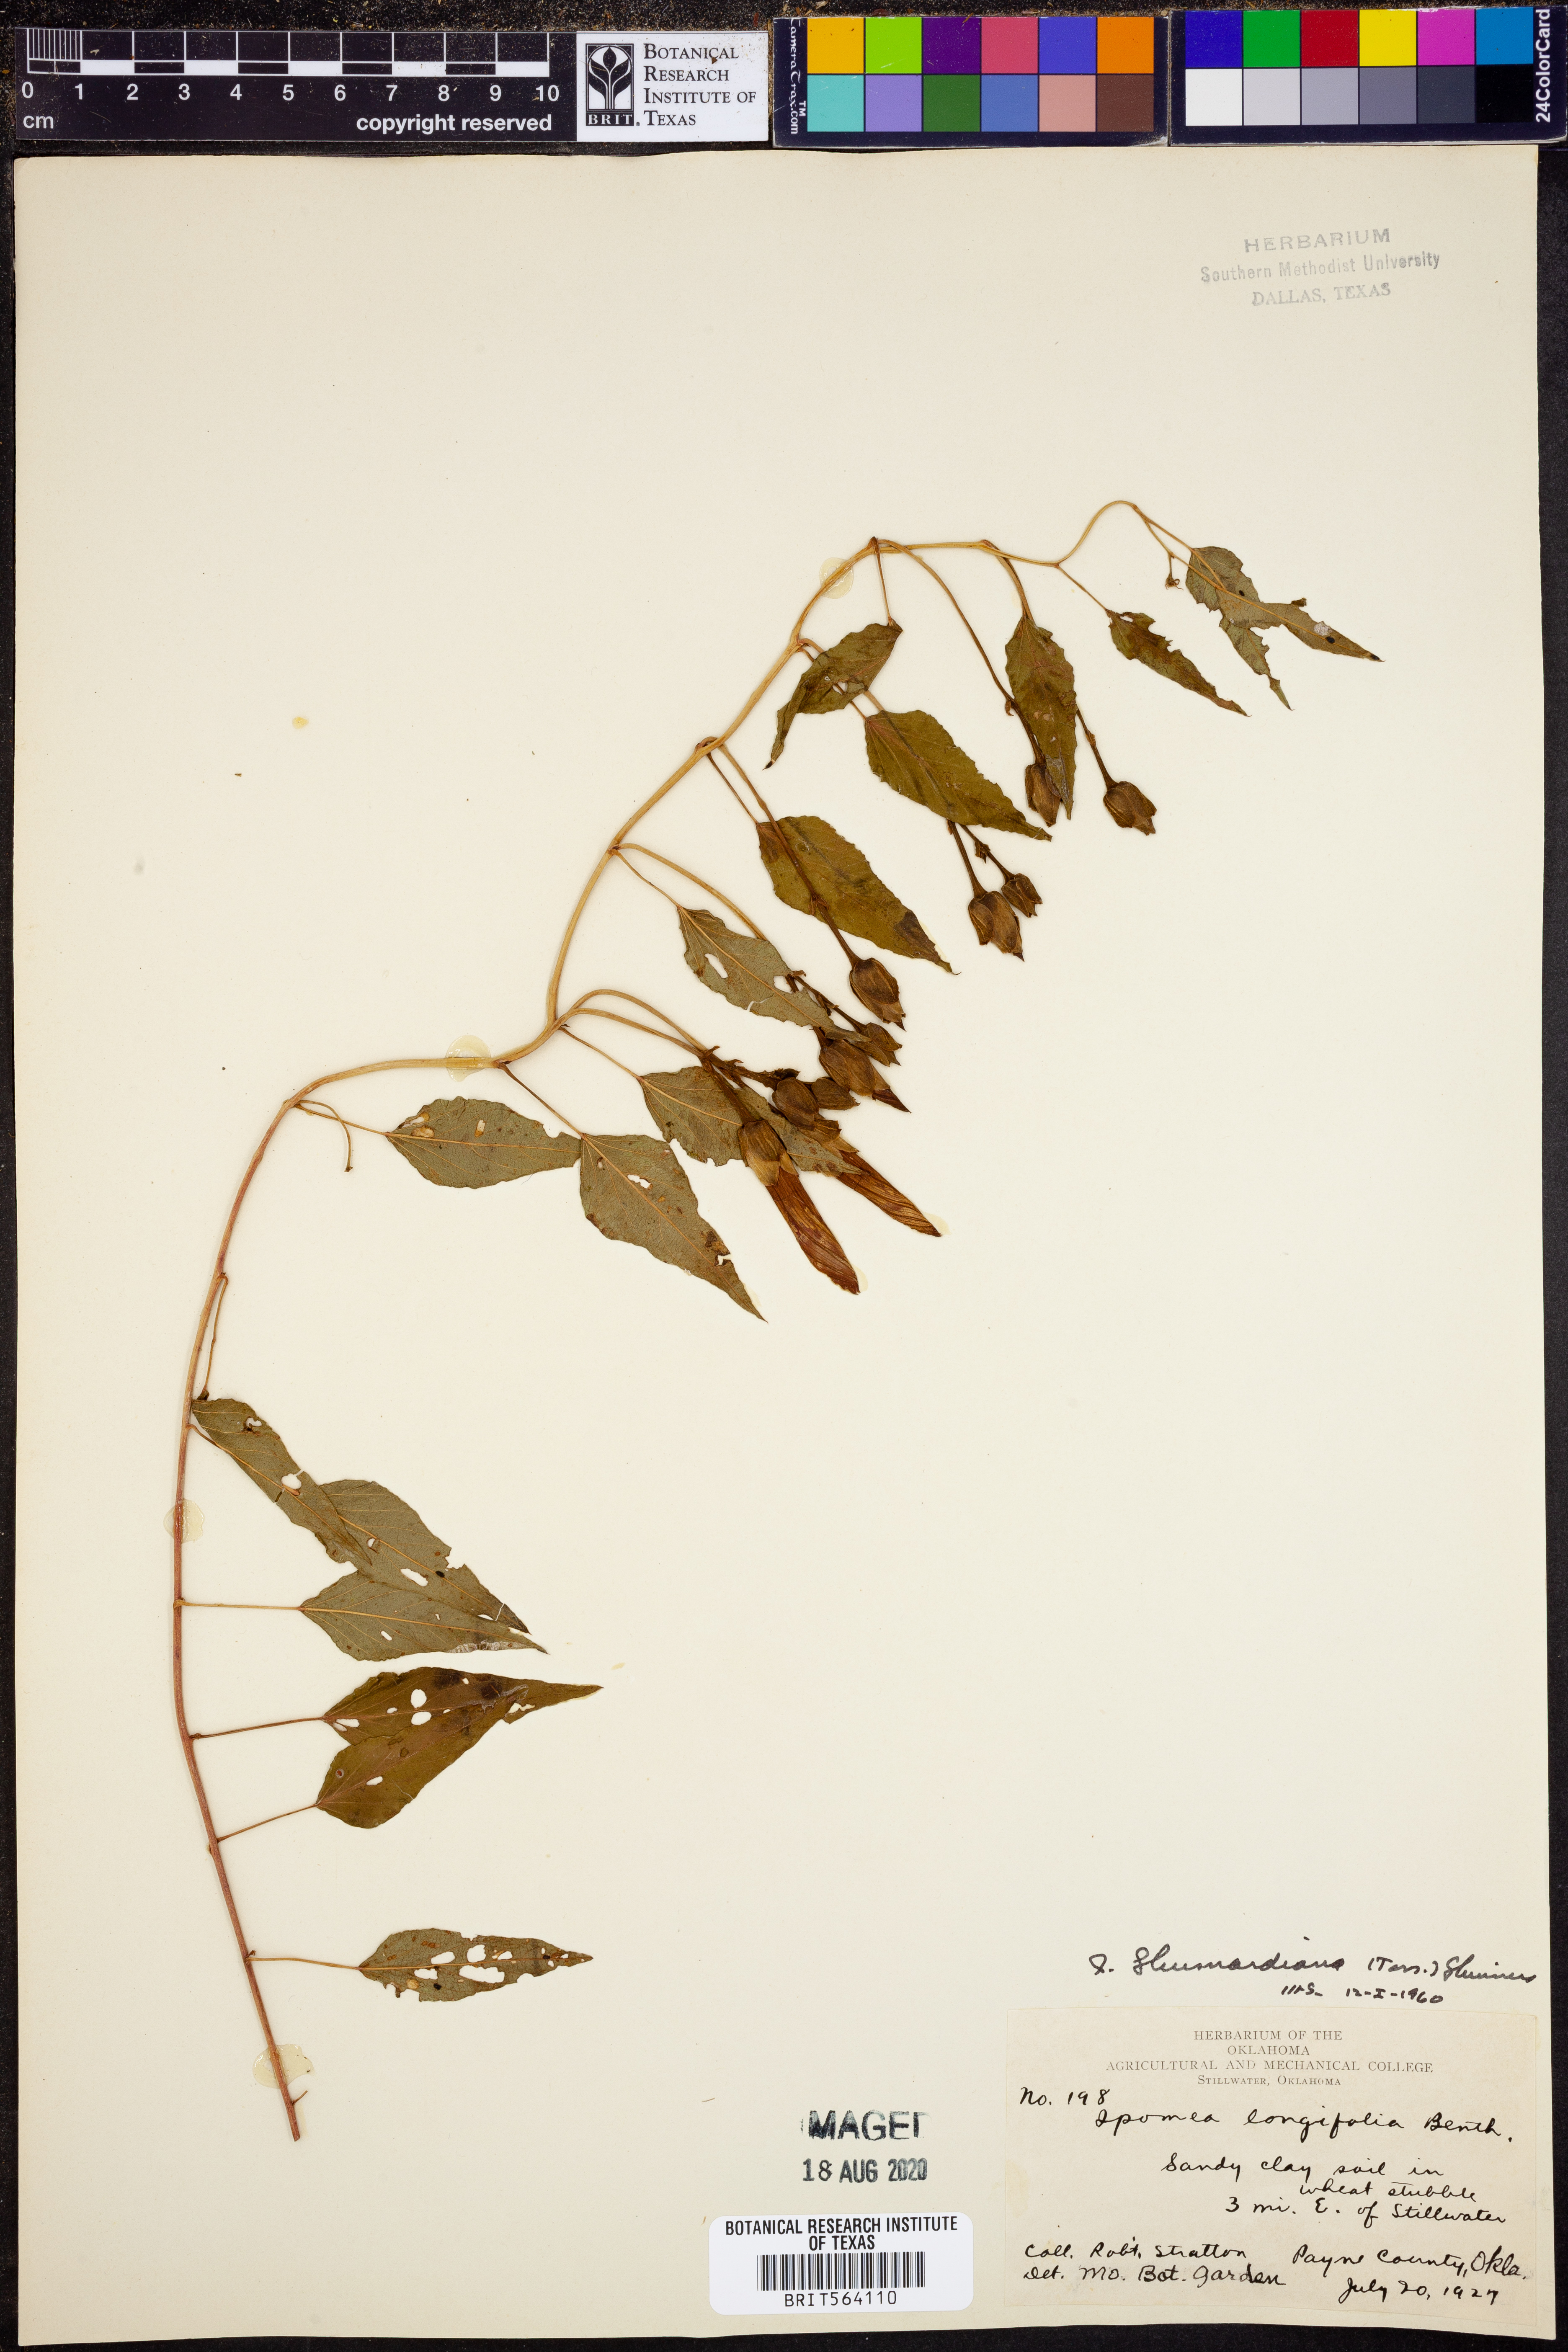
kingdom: Plantae
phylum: Tracheophyta
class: Magnoliopsida
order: Solanales
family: Convolvulaceae
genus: Ipomoea
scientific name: Ipomoea shumardiana
